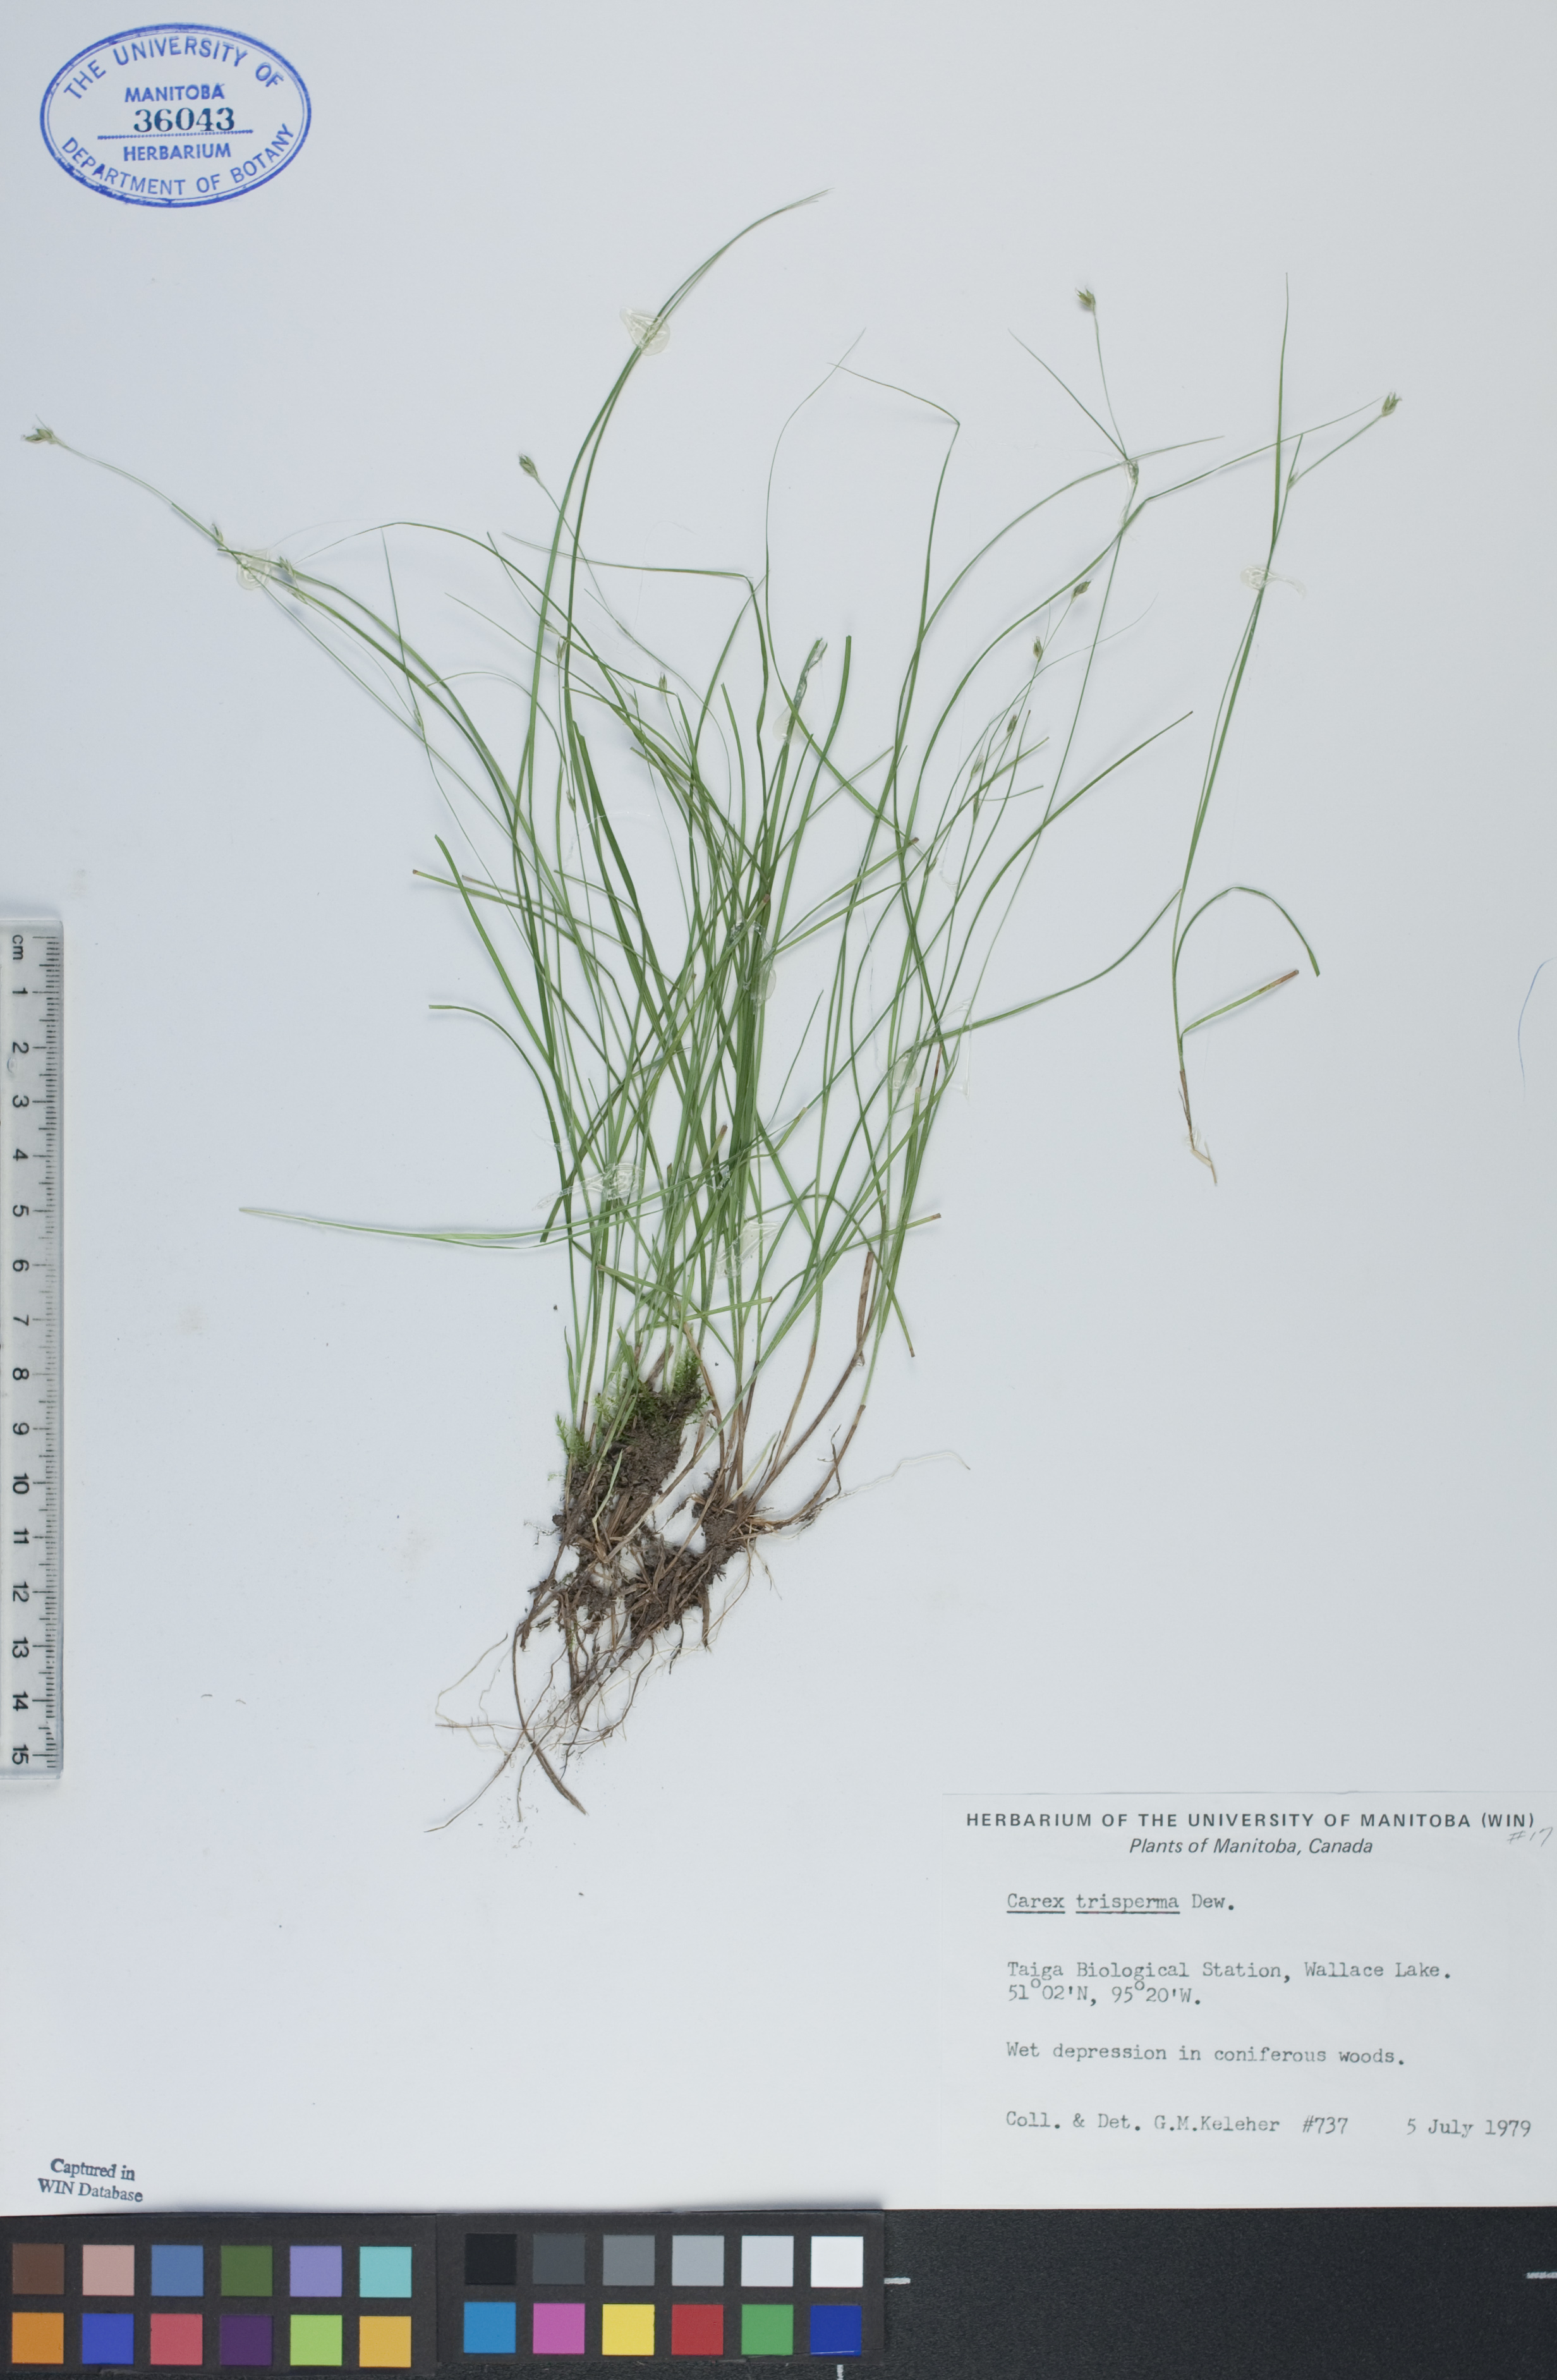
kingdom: Plantae
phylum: Tracheophyta
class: Liliopsida
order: Poales
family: Cyperaceae
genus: Carex
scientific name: Carex trisperma
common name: Three-seeded sedge
